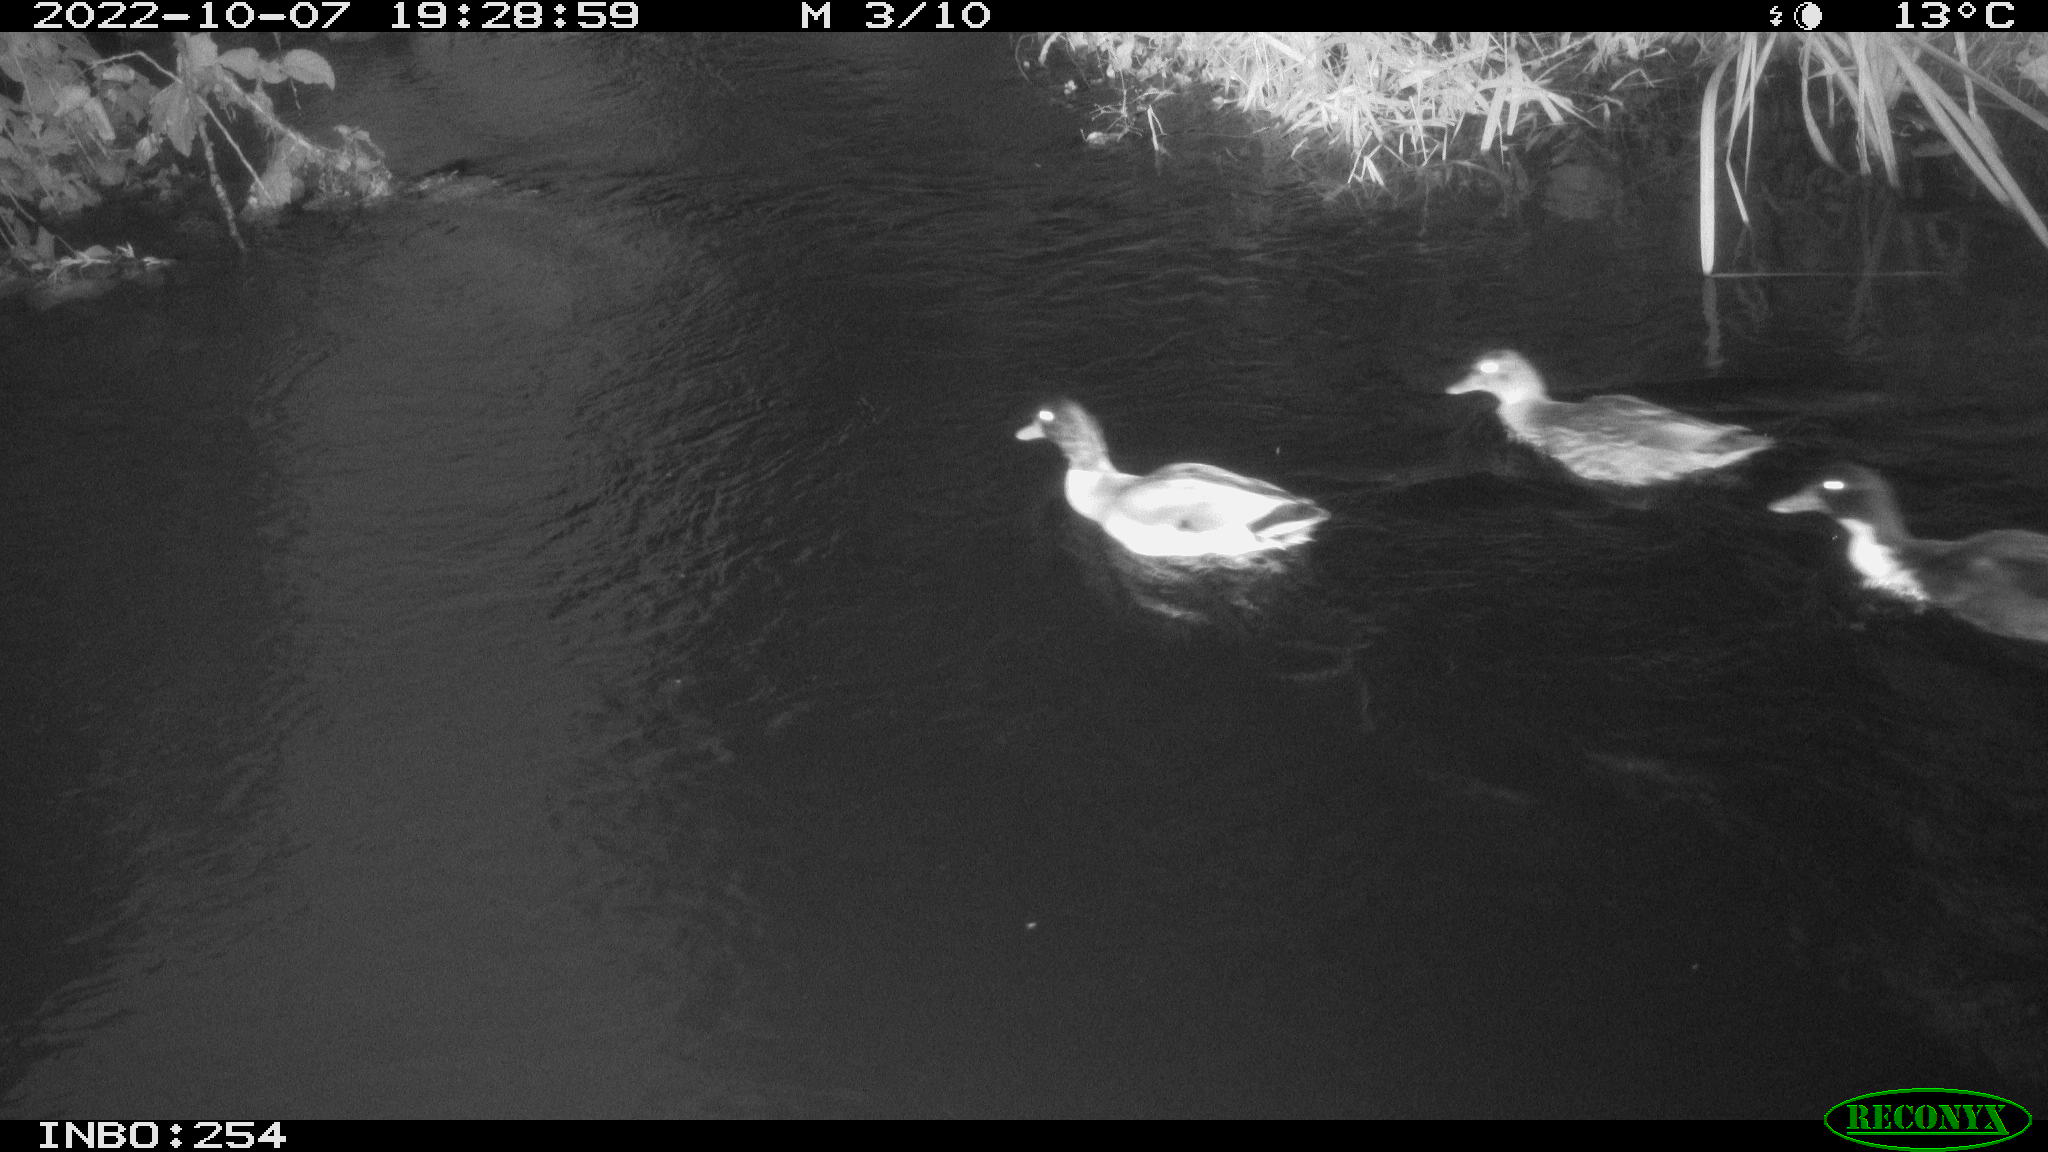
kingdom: Animalia
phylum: Chordata
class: Aves
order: Anseriformes
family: Anatidae
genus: Anas
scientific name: Anas
